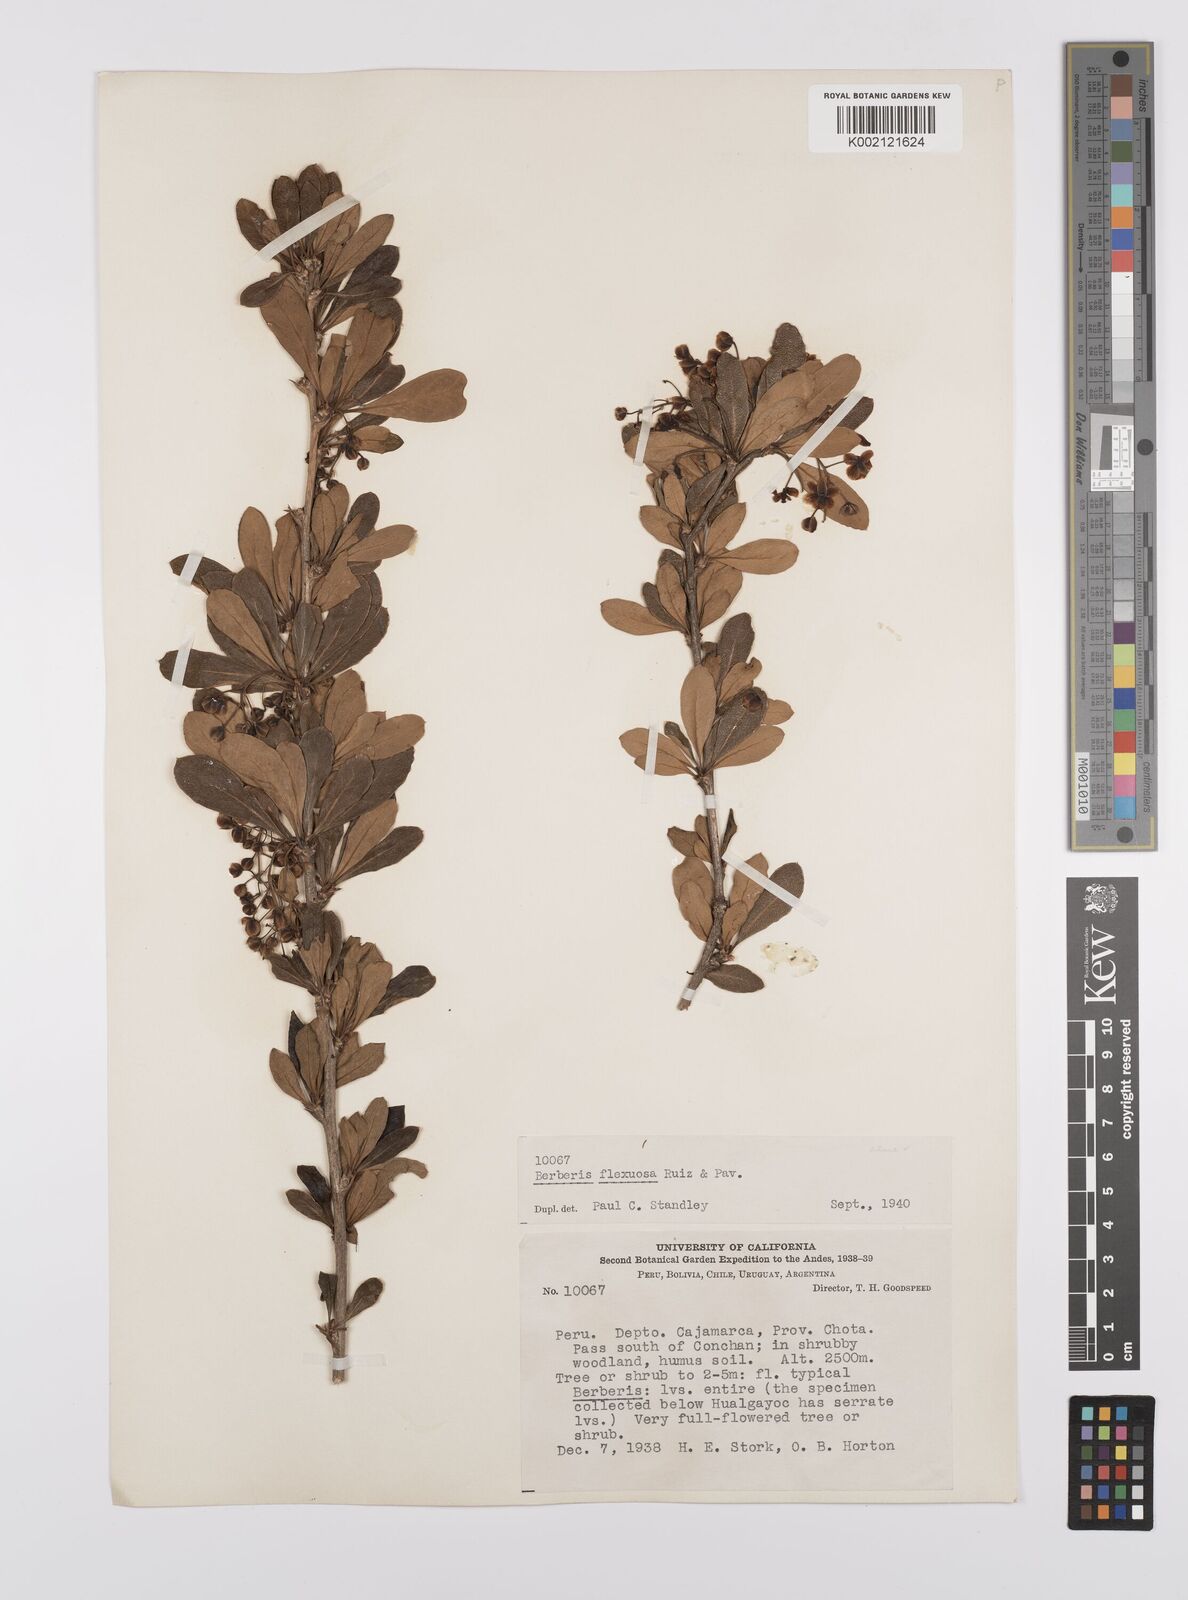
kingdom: Plantae
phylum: Tracheophyta
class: Magnoliopsida
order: Ranunculales
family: Berberidaceae
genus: Berberis
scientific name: Berberis flexuosa
